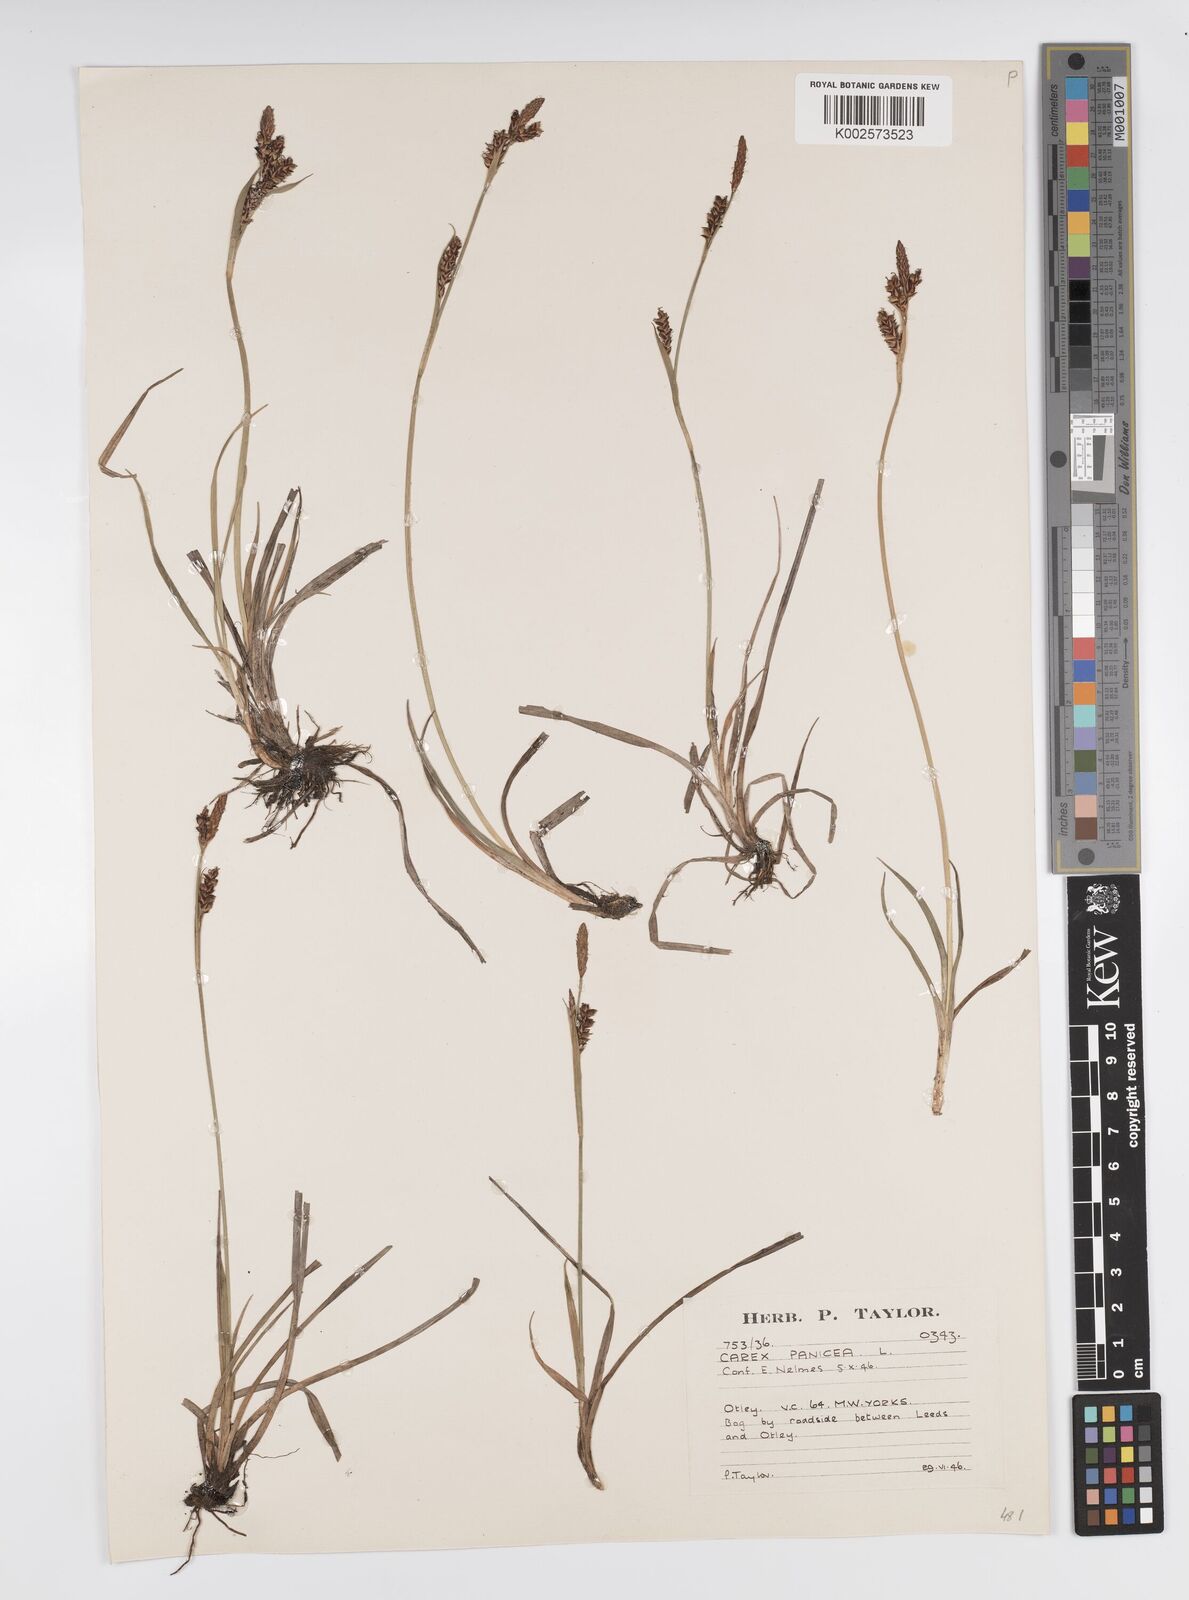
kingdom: Plantae
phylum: Tracheophyta
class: Liliopsida
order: Poales
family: Cyperaceae
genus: Carex
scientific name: Carex panicea
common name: Carnation sedge
